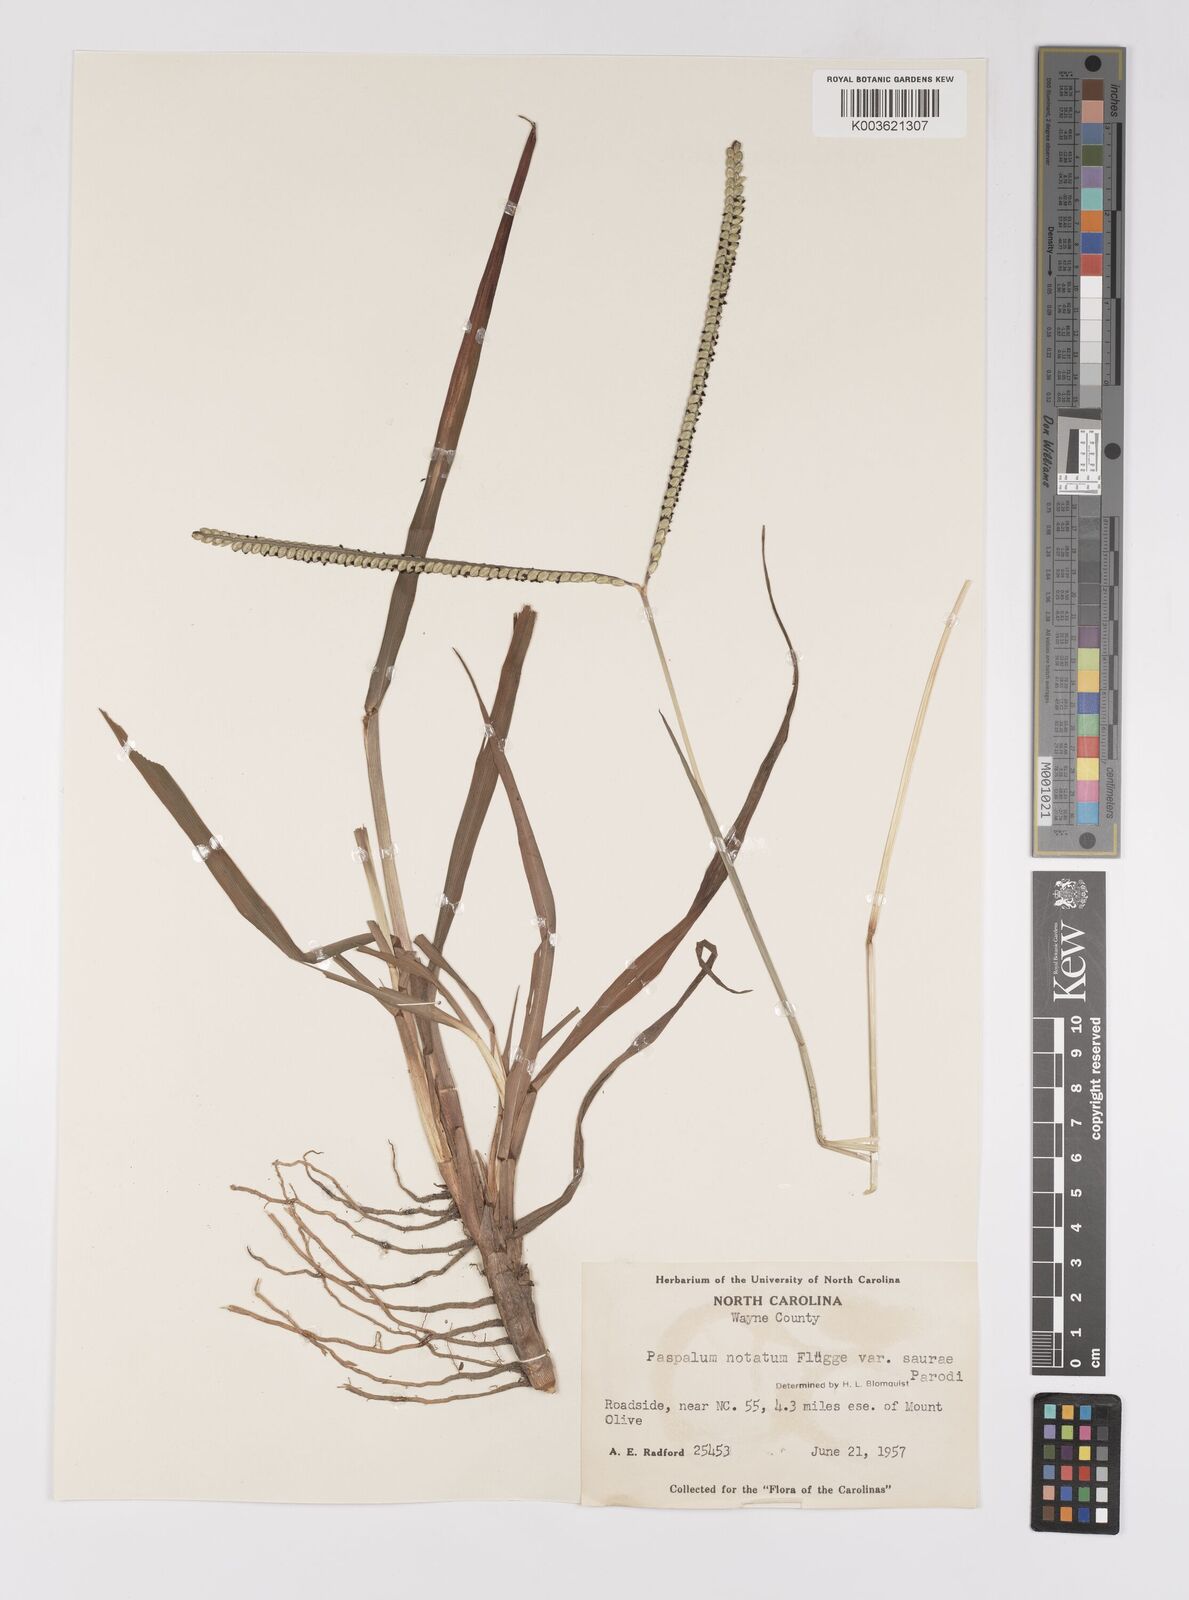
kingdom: Plantae
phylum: Tracheophyta
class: Liliopsida
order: Poales
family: Poaceae
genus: Paspalum
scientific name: Paspalum notatum
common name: Bahiagrass
